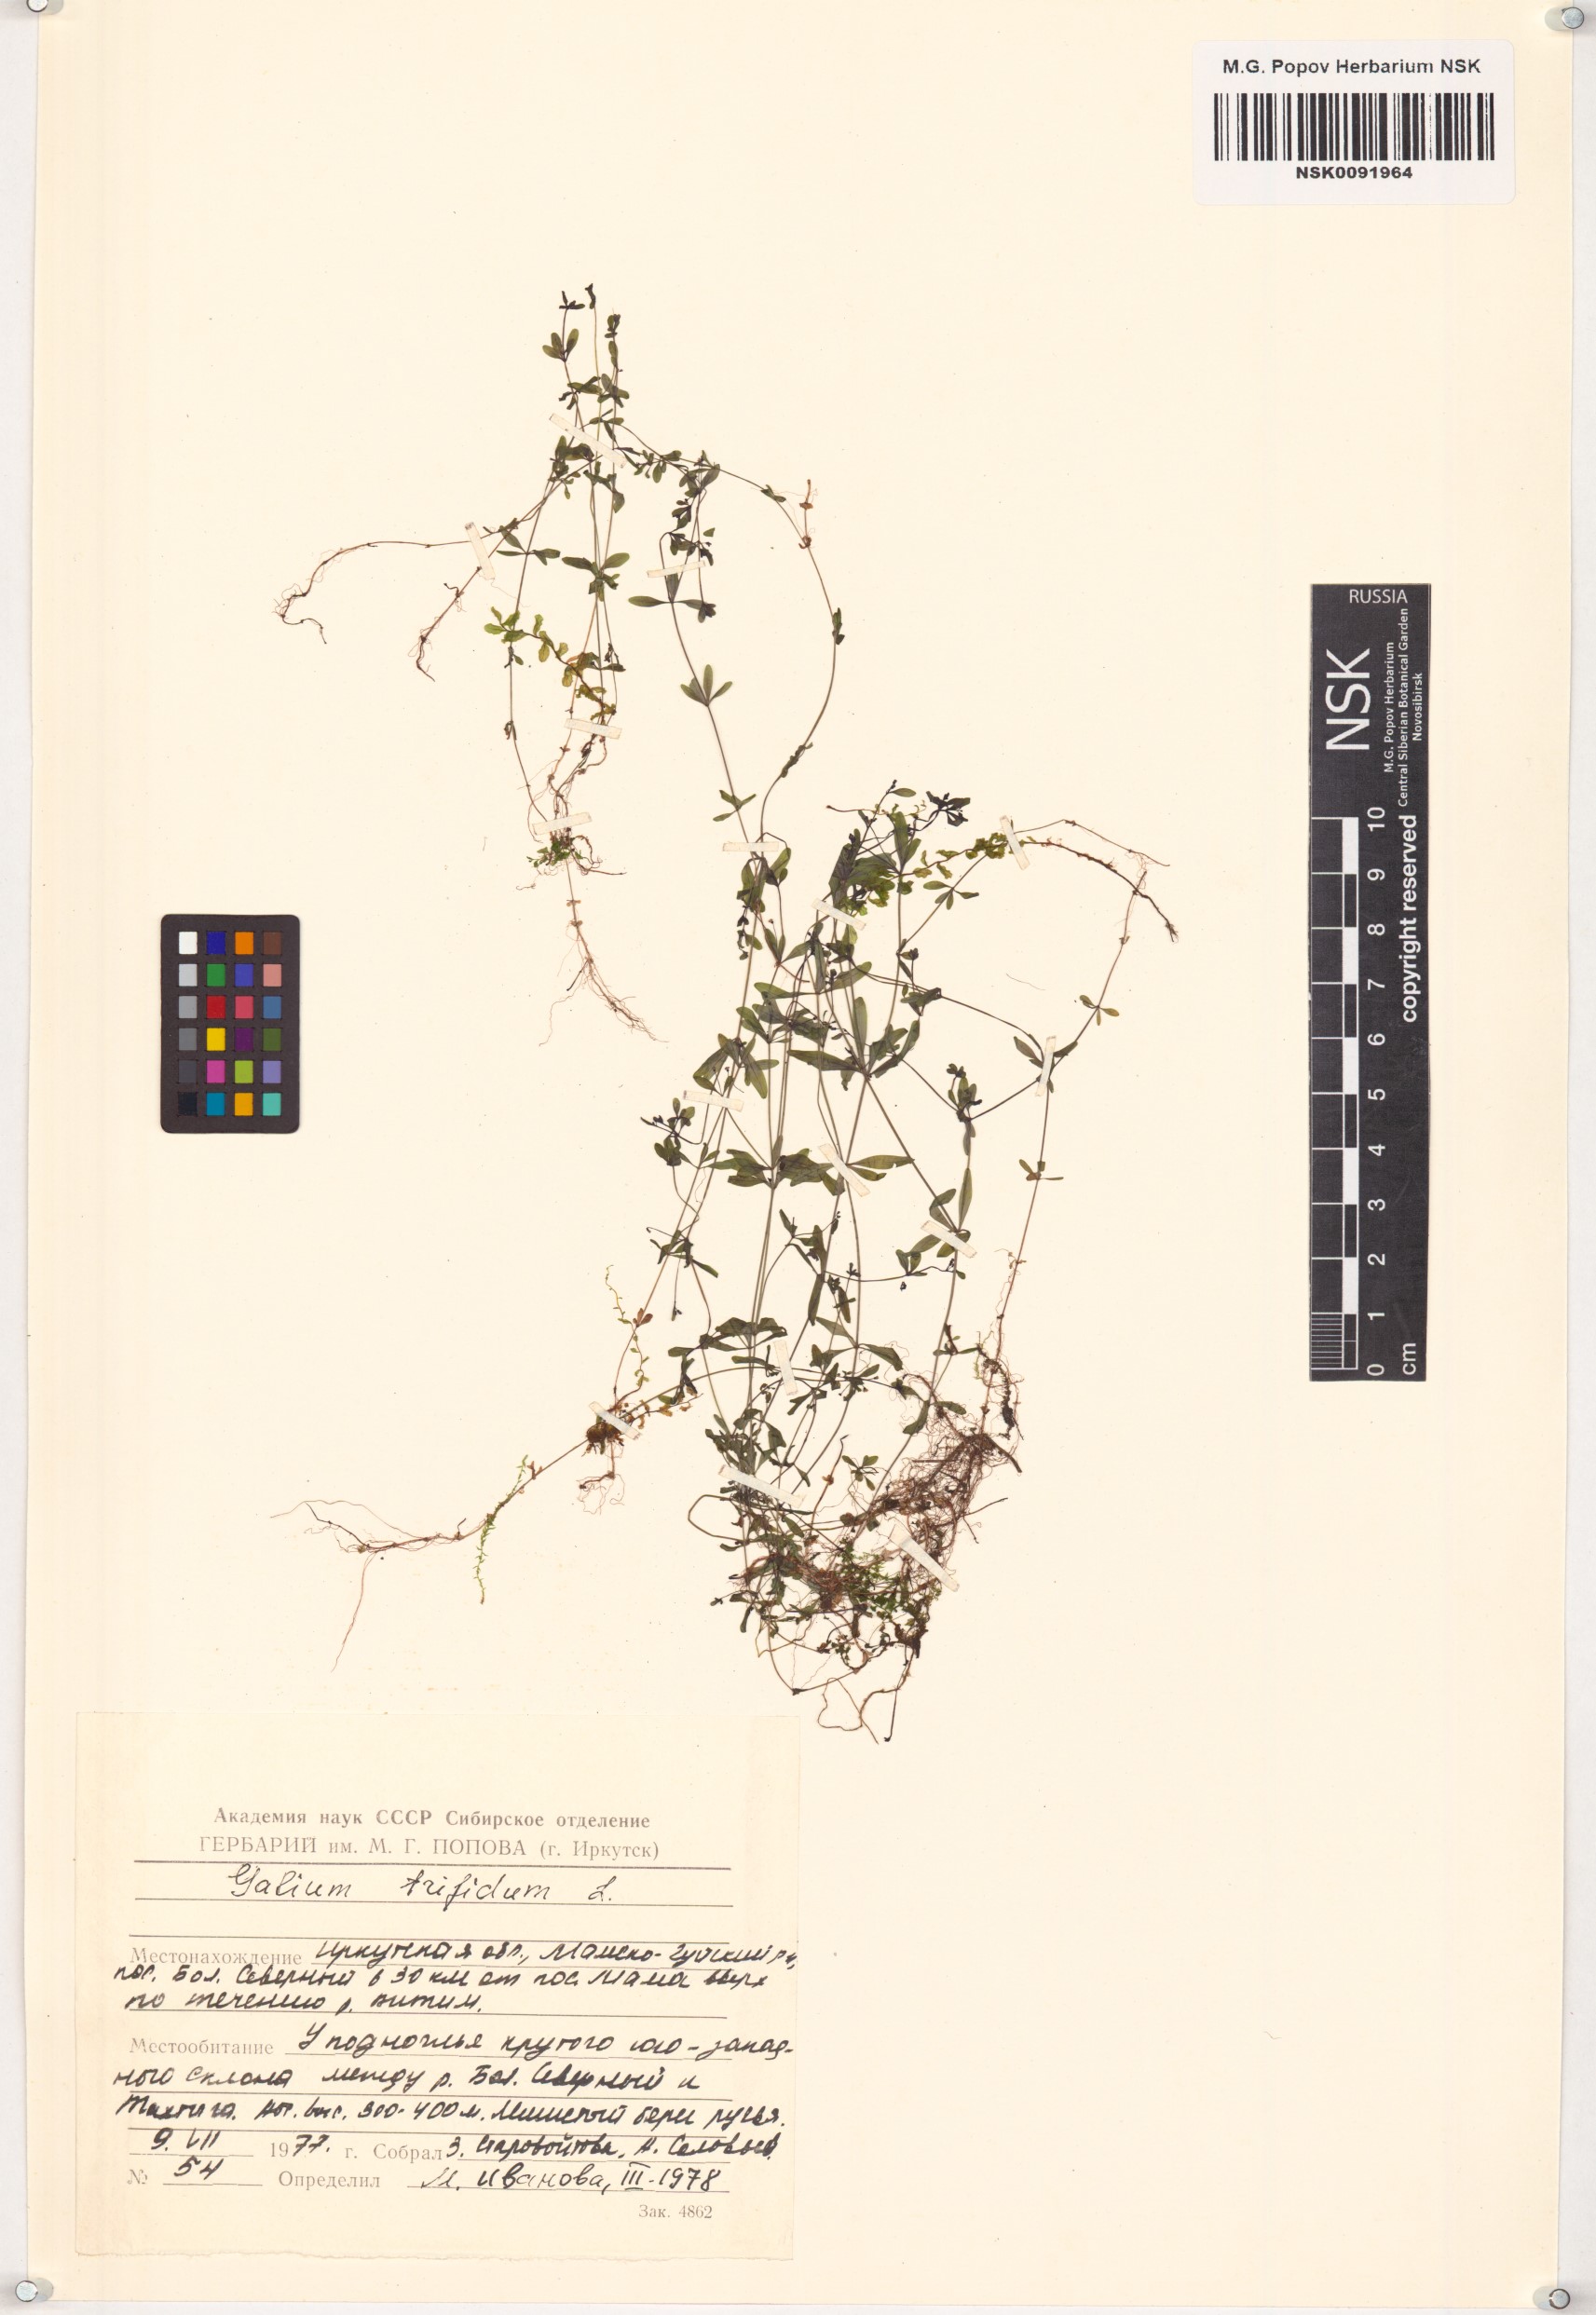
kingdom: Plantae
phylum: Tracheophyta
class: Magnoliopsida
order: Gentianales
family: Rubiaceae
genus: Galium
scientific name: Galium trifidum
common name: Small bedstraw
